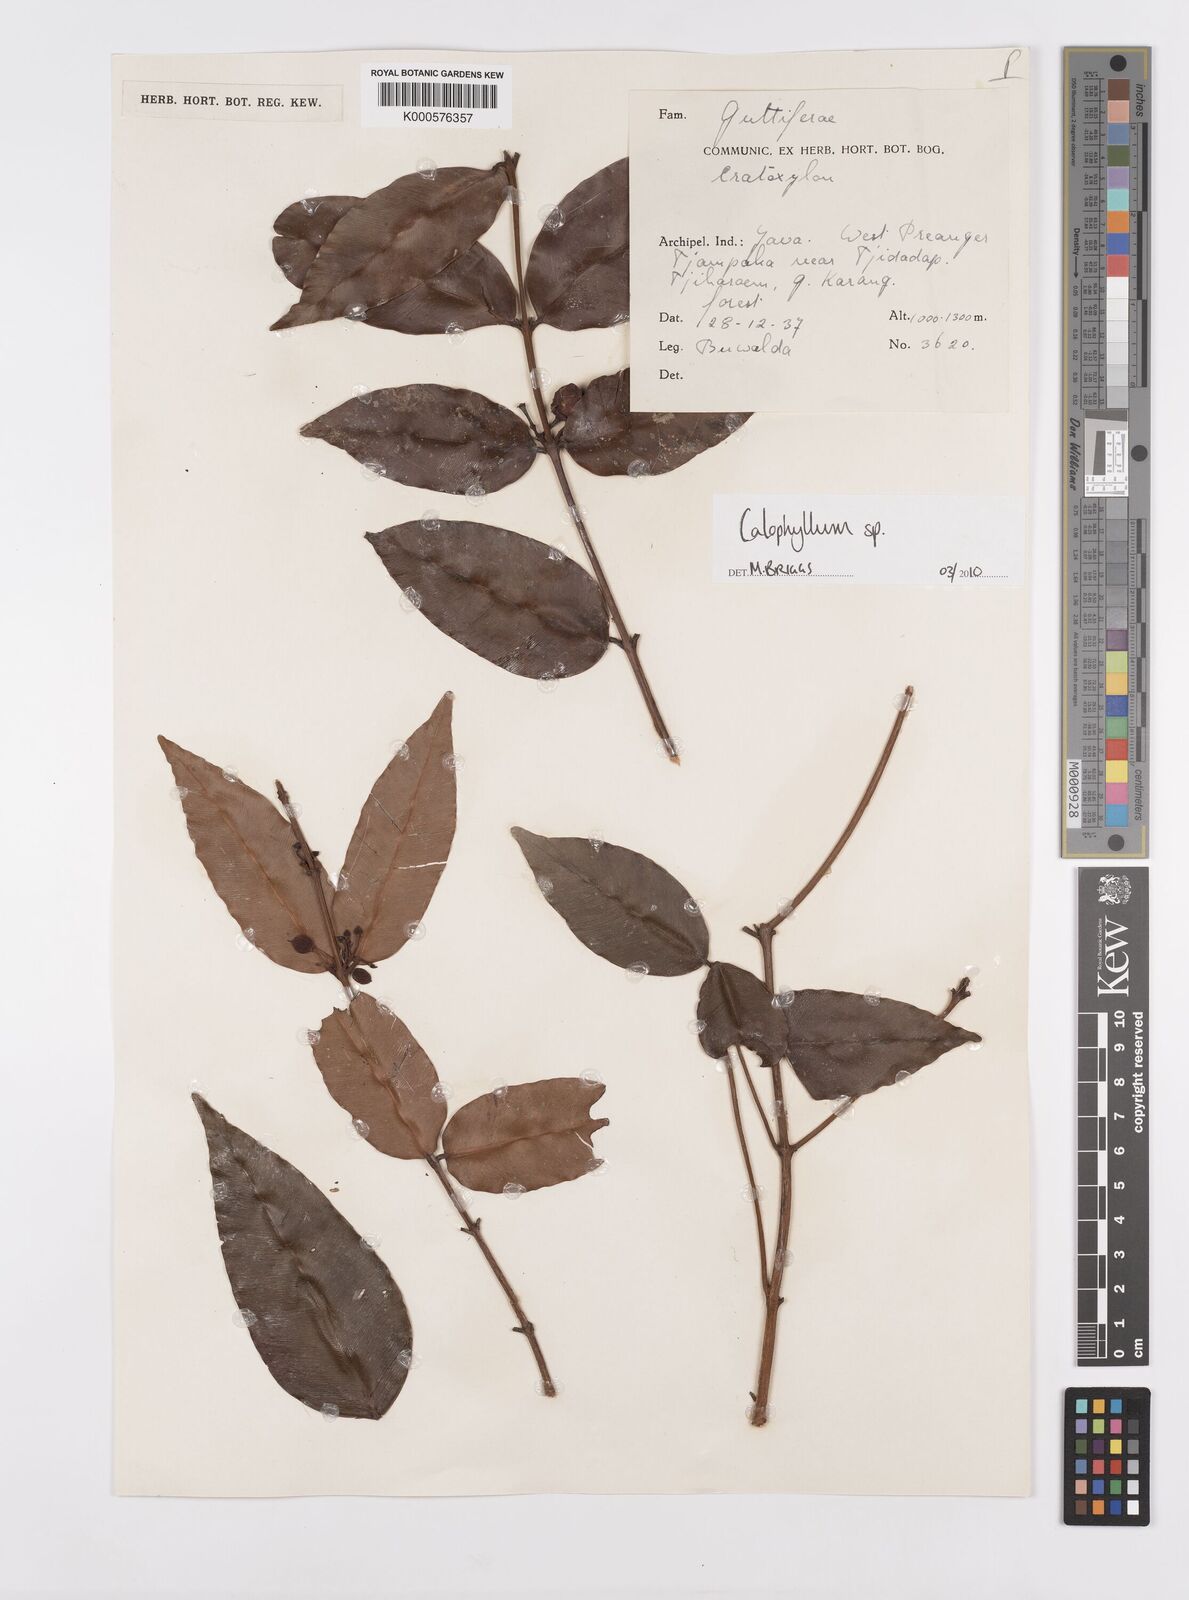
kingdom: Plantae
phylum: Tracheophyta
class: Magnoliopsida
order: Malpighiales
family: Calophyllaceae
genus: Calophyllum
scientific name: Calophyllum
